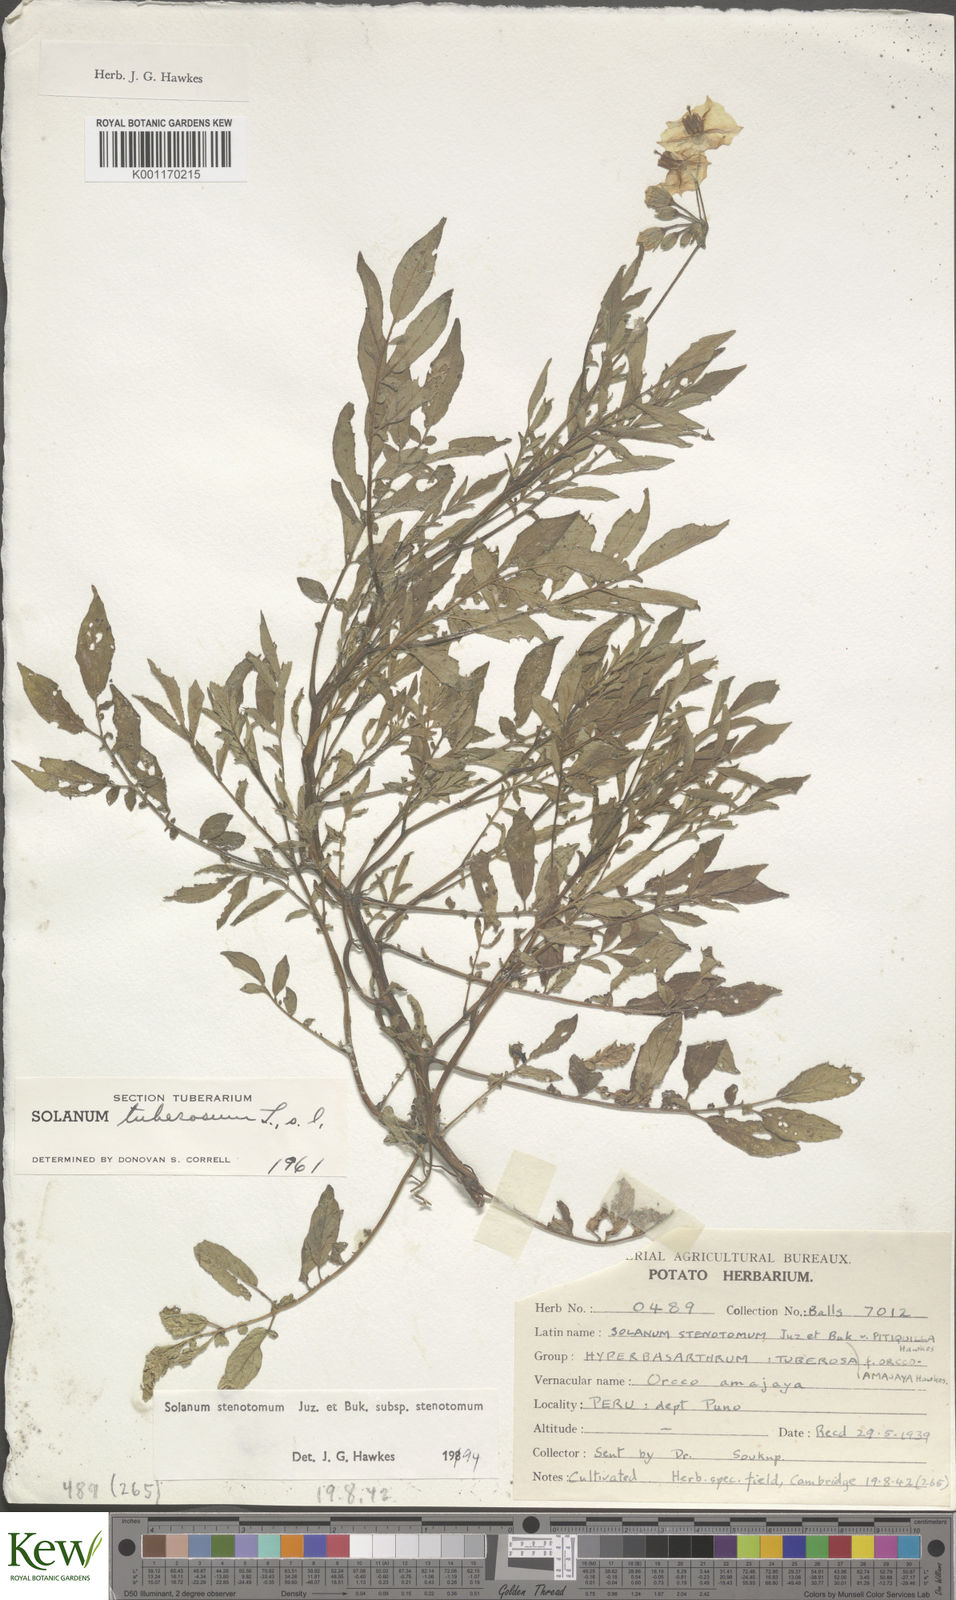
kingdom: Plantae
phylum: Tracheophyta
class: Magnoliopsida
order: Solanales
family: Solanaceae
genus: Solanum
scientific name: Solanum tuberosum
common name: Potato
